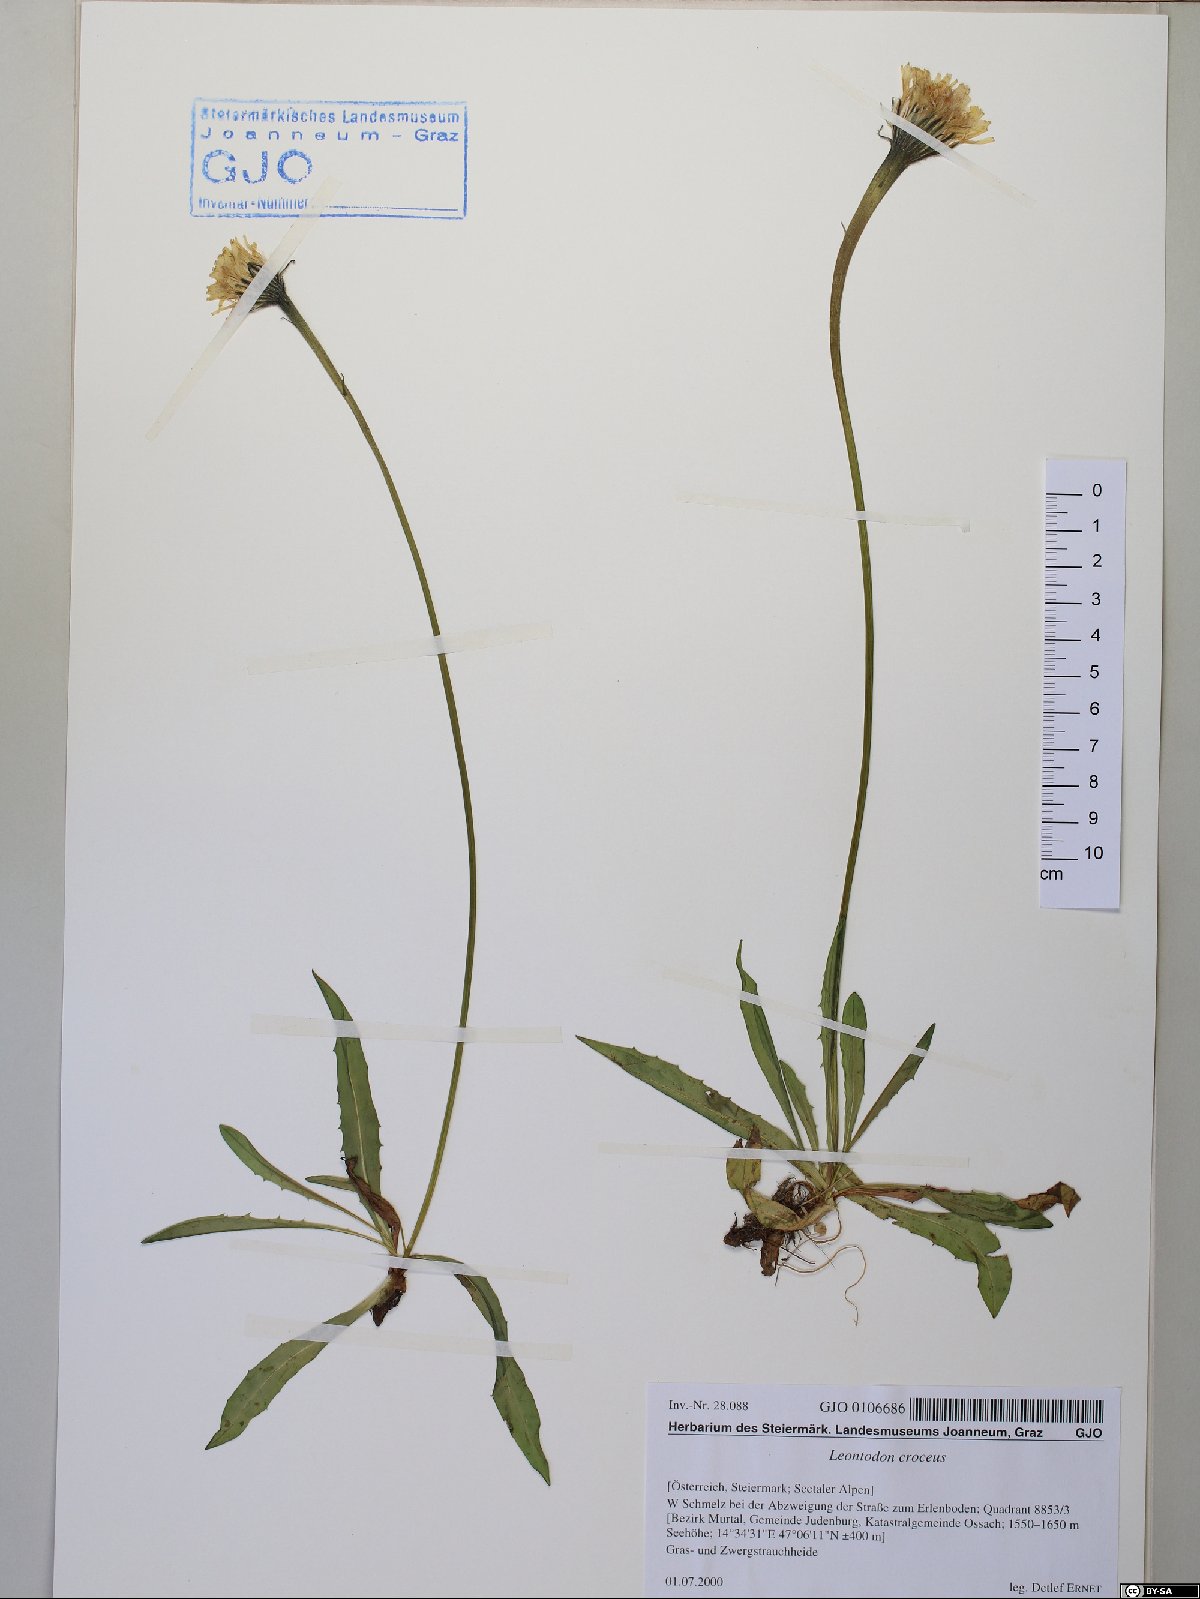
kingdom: Plantae
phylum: Tracheophyta
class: Magnoliopsida
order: Asterales
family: Asteraceae
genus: Scorzoneroides
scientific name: Scorzoneroides crocea
